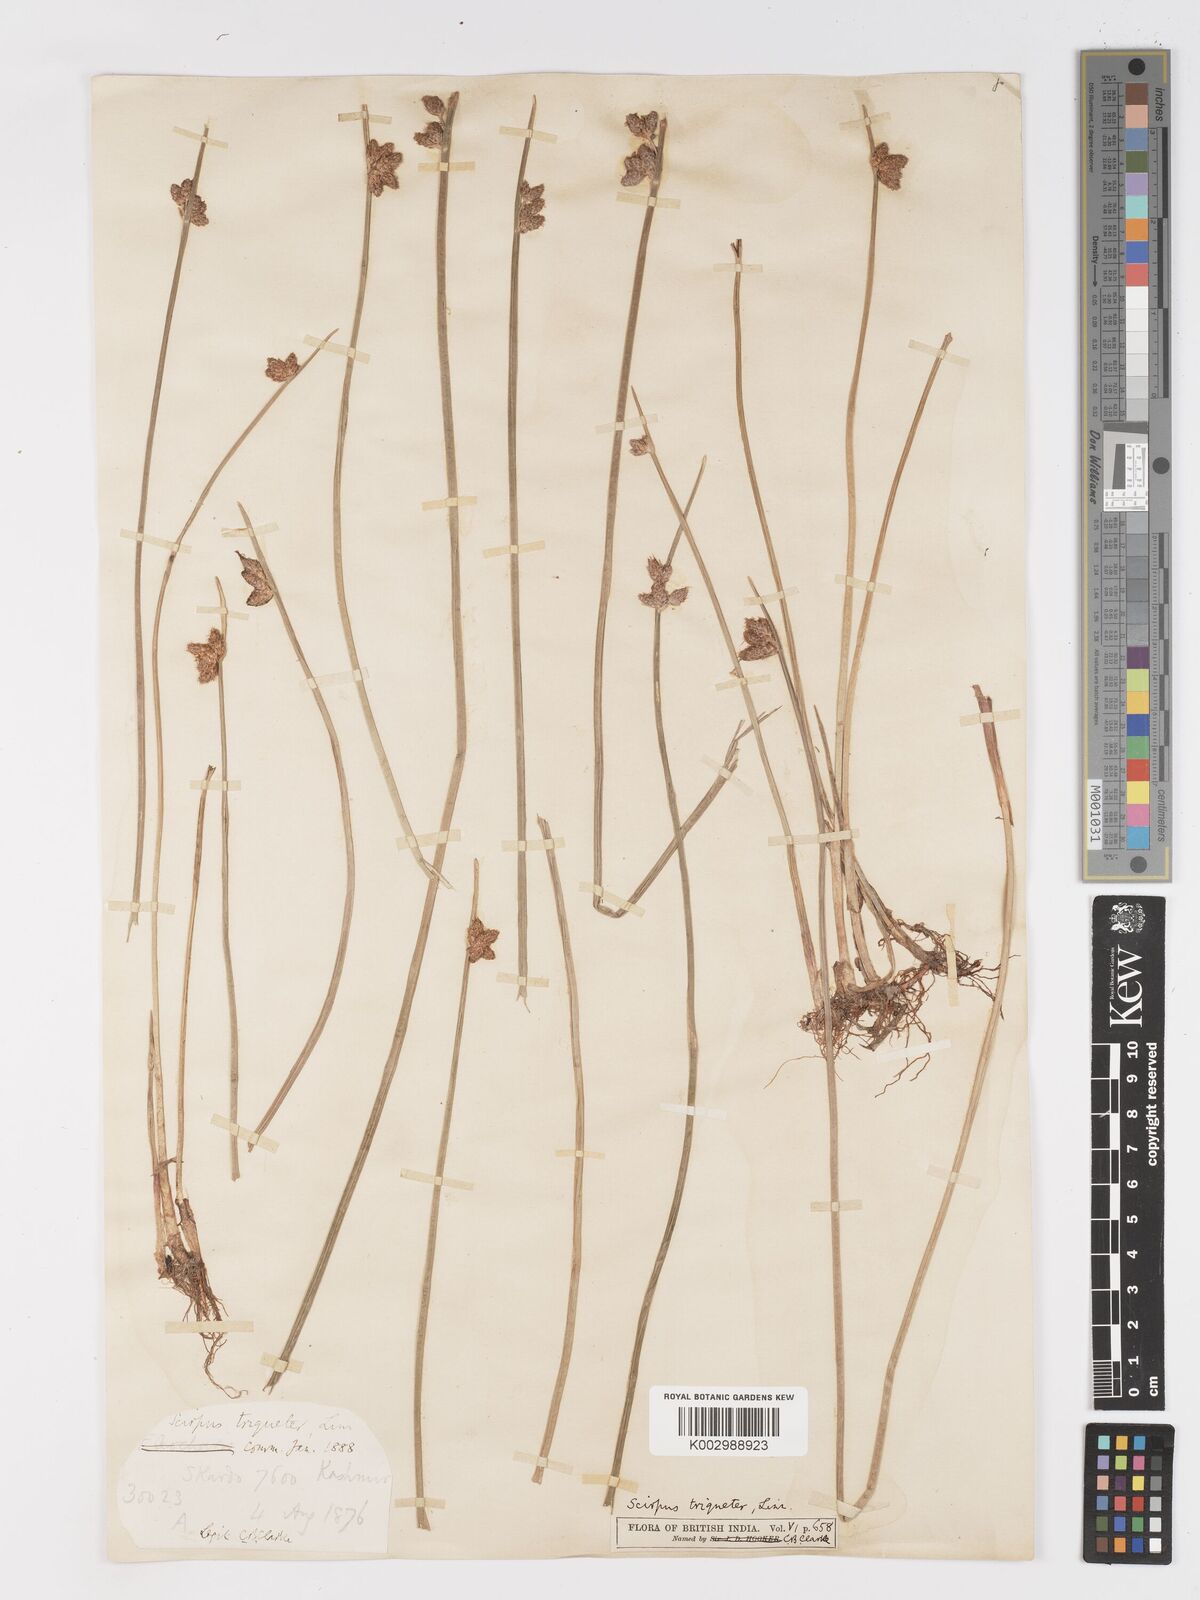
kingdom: Plantae
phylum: Tracheophyta
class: Liliopsida
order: Poales
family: Cyperaceae
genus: Schoenoplectus
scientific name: Schoenoplectus triqueter
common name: Triangular club-rush
